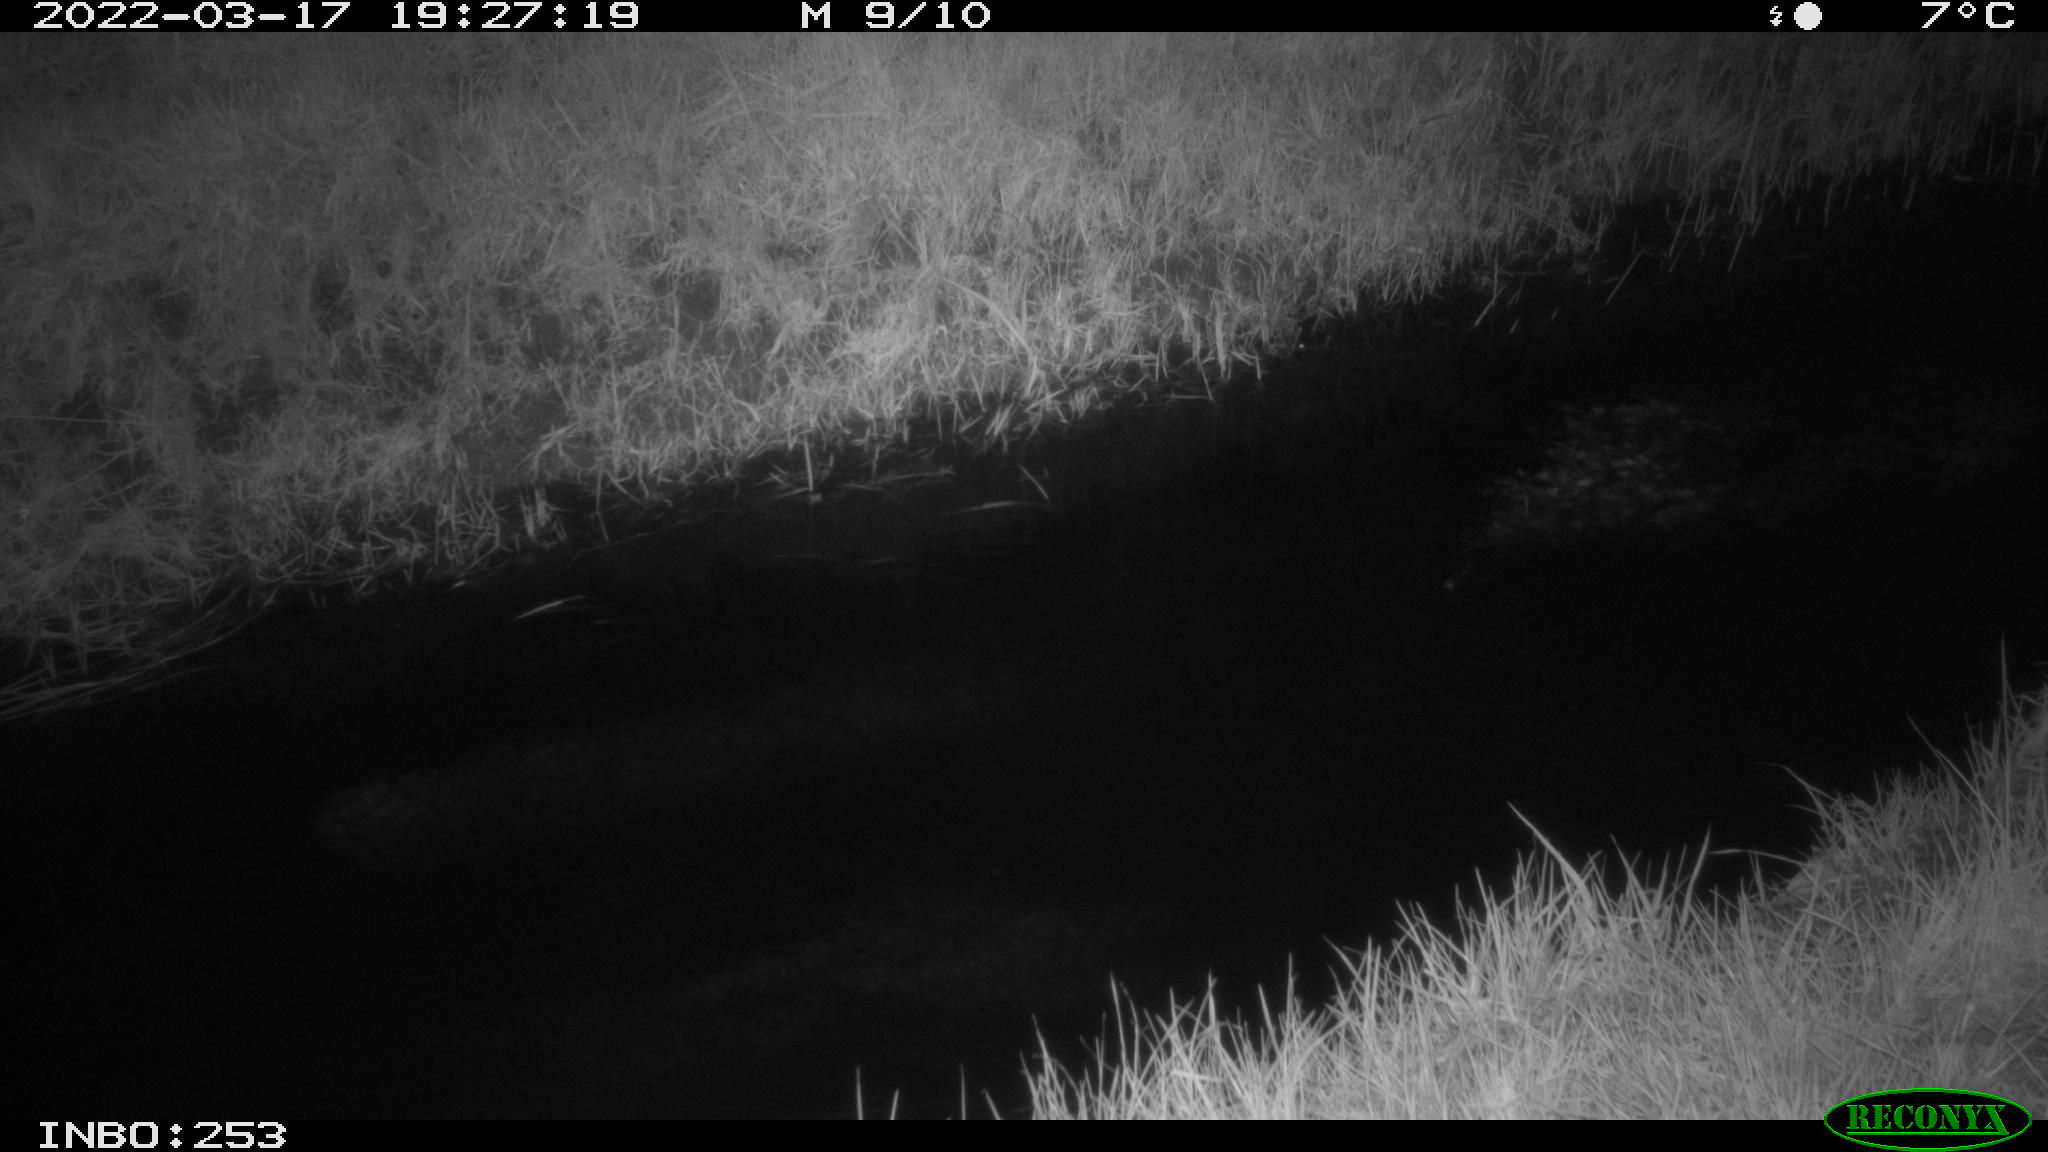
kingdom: Animalia
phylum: Chordata
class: Aves
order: Anseriformes
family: Anatidae
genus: Anas
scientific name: Anas platyrhynchos
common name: Mallard
